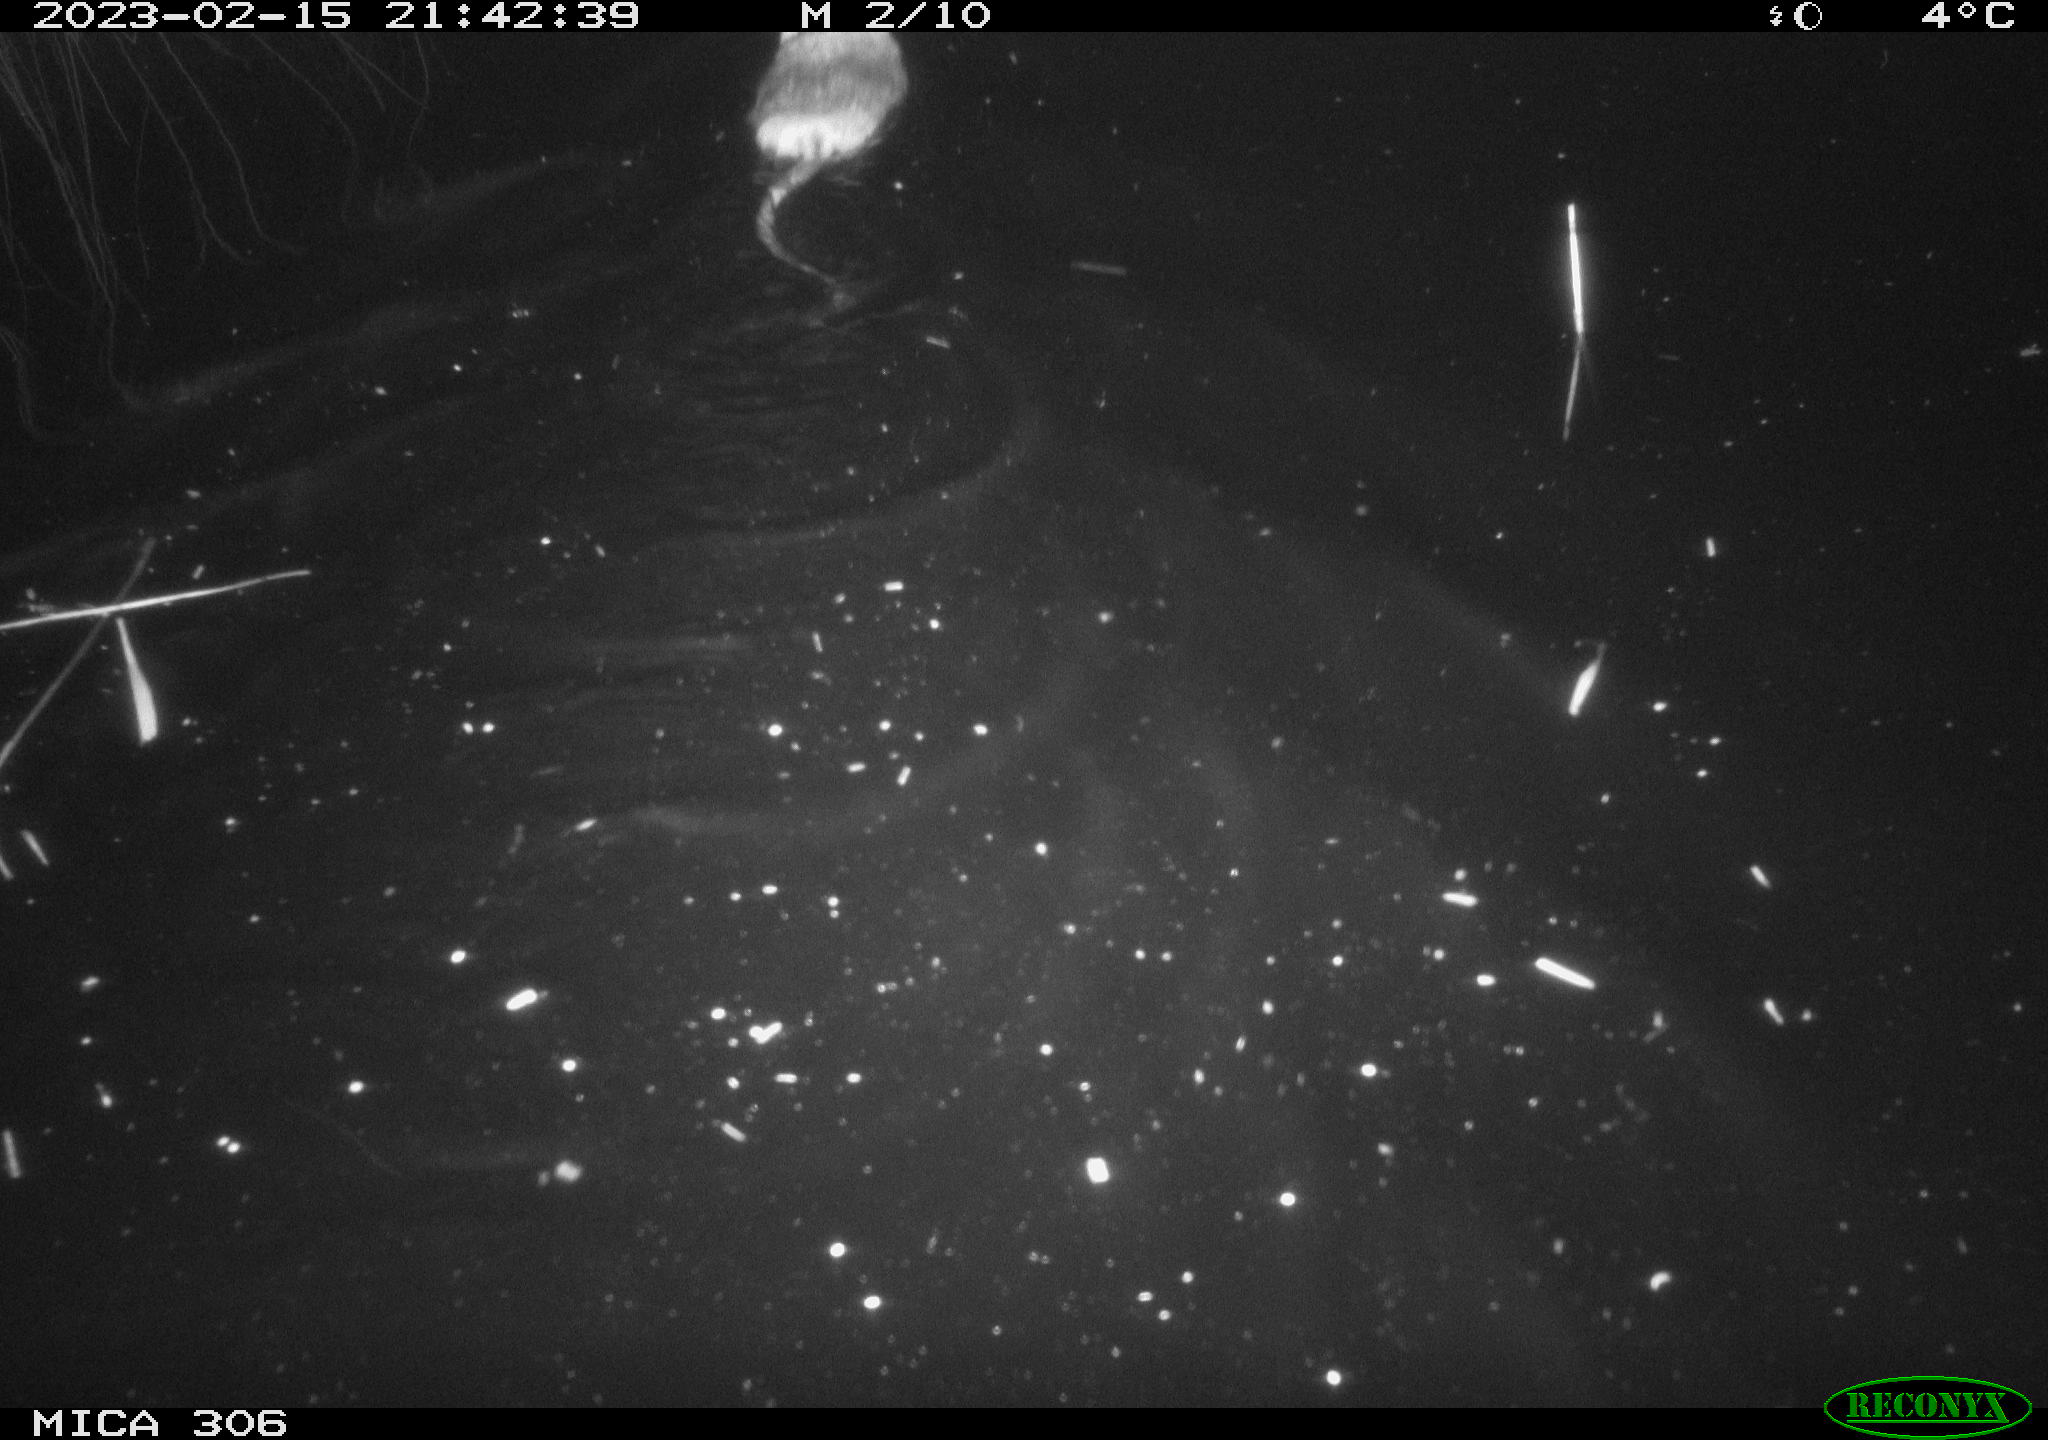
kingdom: Animalia
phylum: Chordata
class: Mammalia
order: Rodentia
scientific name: Rodentia
